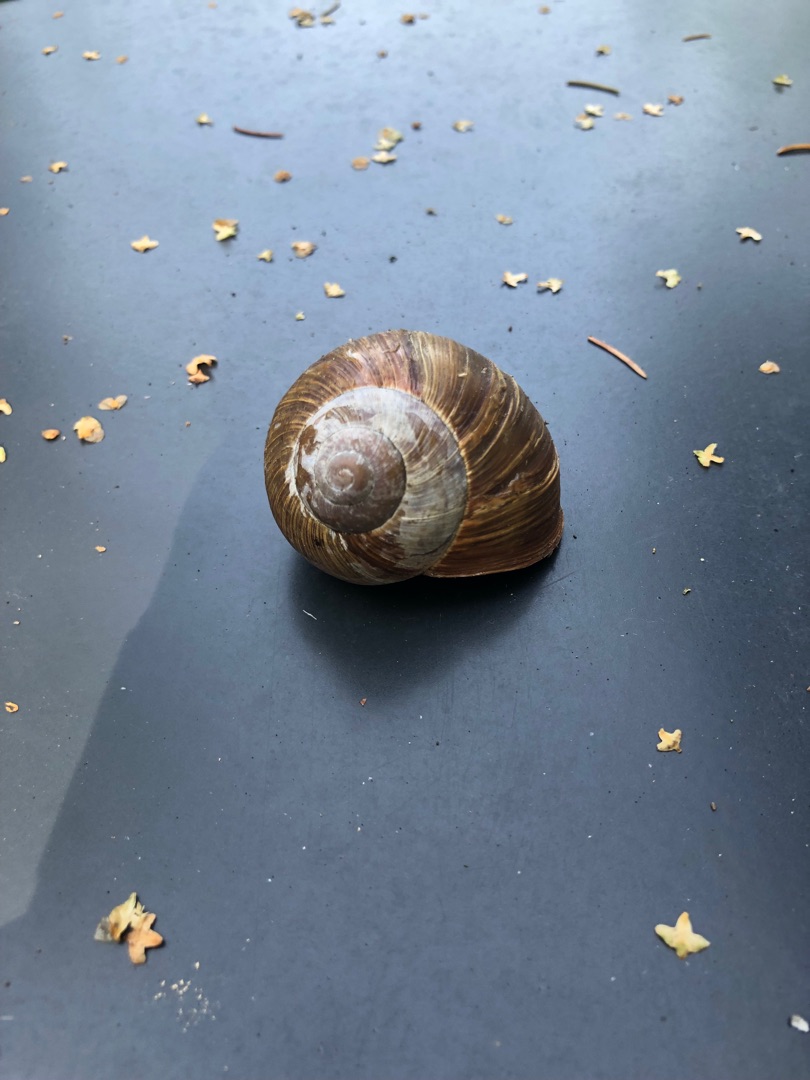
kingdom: Animalia
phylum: Mollusca
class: Gastropoda
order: Stylommatophora
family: Helicidae
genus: Helix
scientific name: Helix pomatia
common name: Vinbjergsnegl
